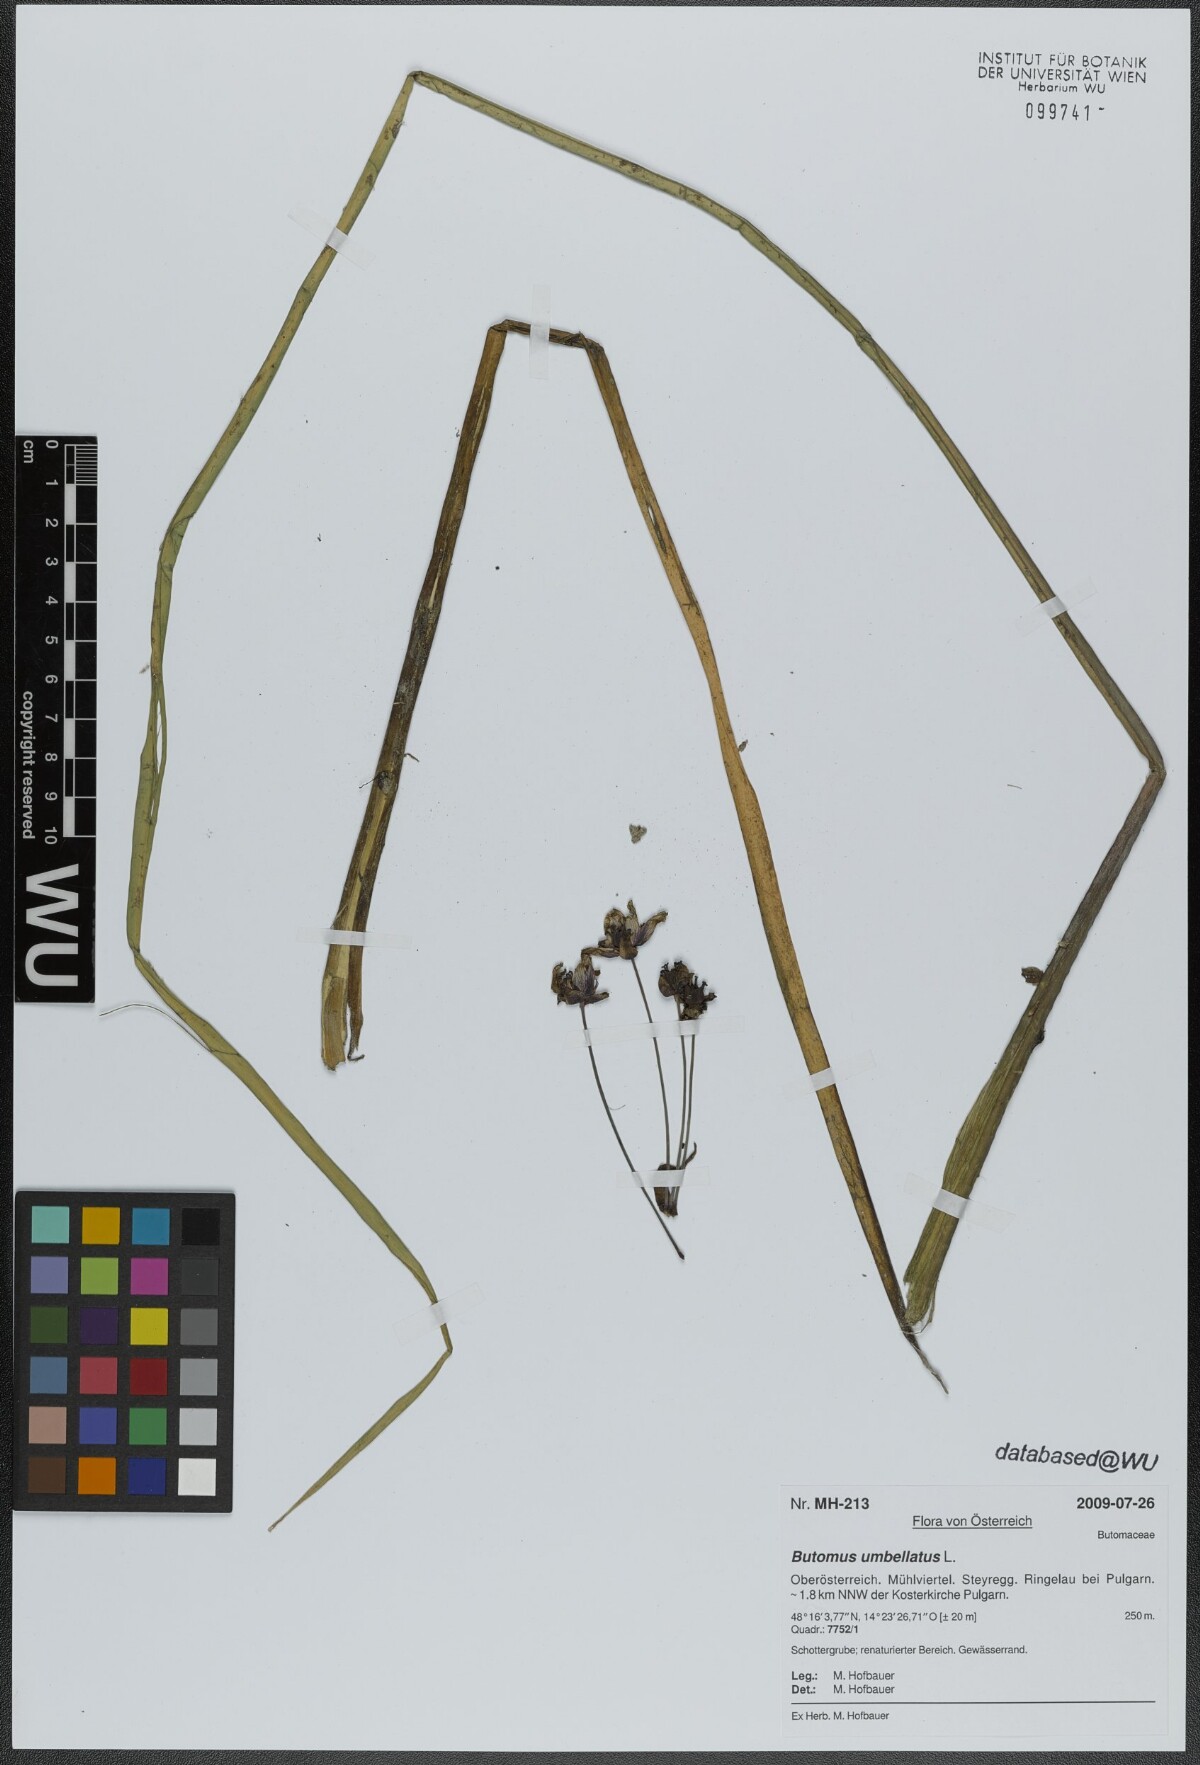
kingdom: Plantae
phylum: Tracheophyta
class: Liliopsida
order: Alismatales
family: Butomaceae
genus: Butomus
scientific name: Butomus umbellatus
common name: Flowering-rush
